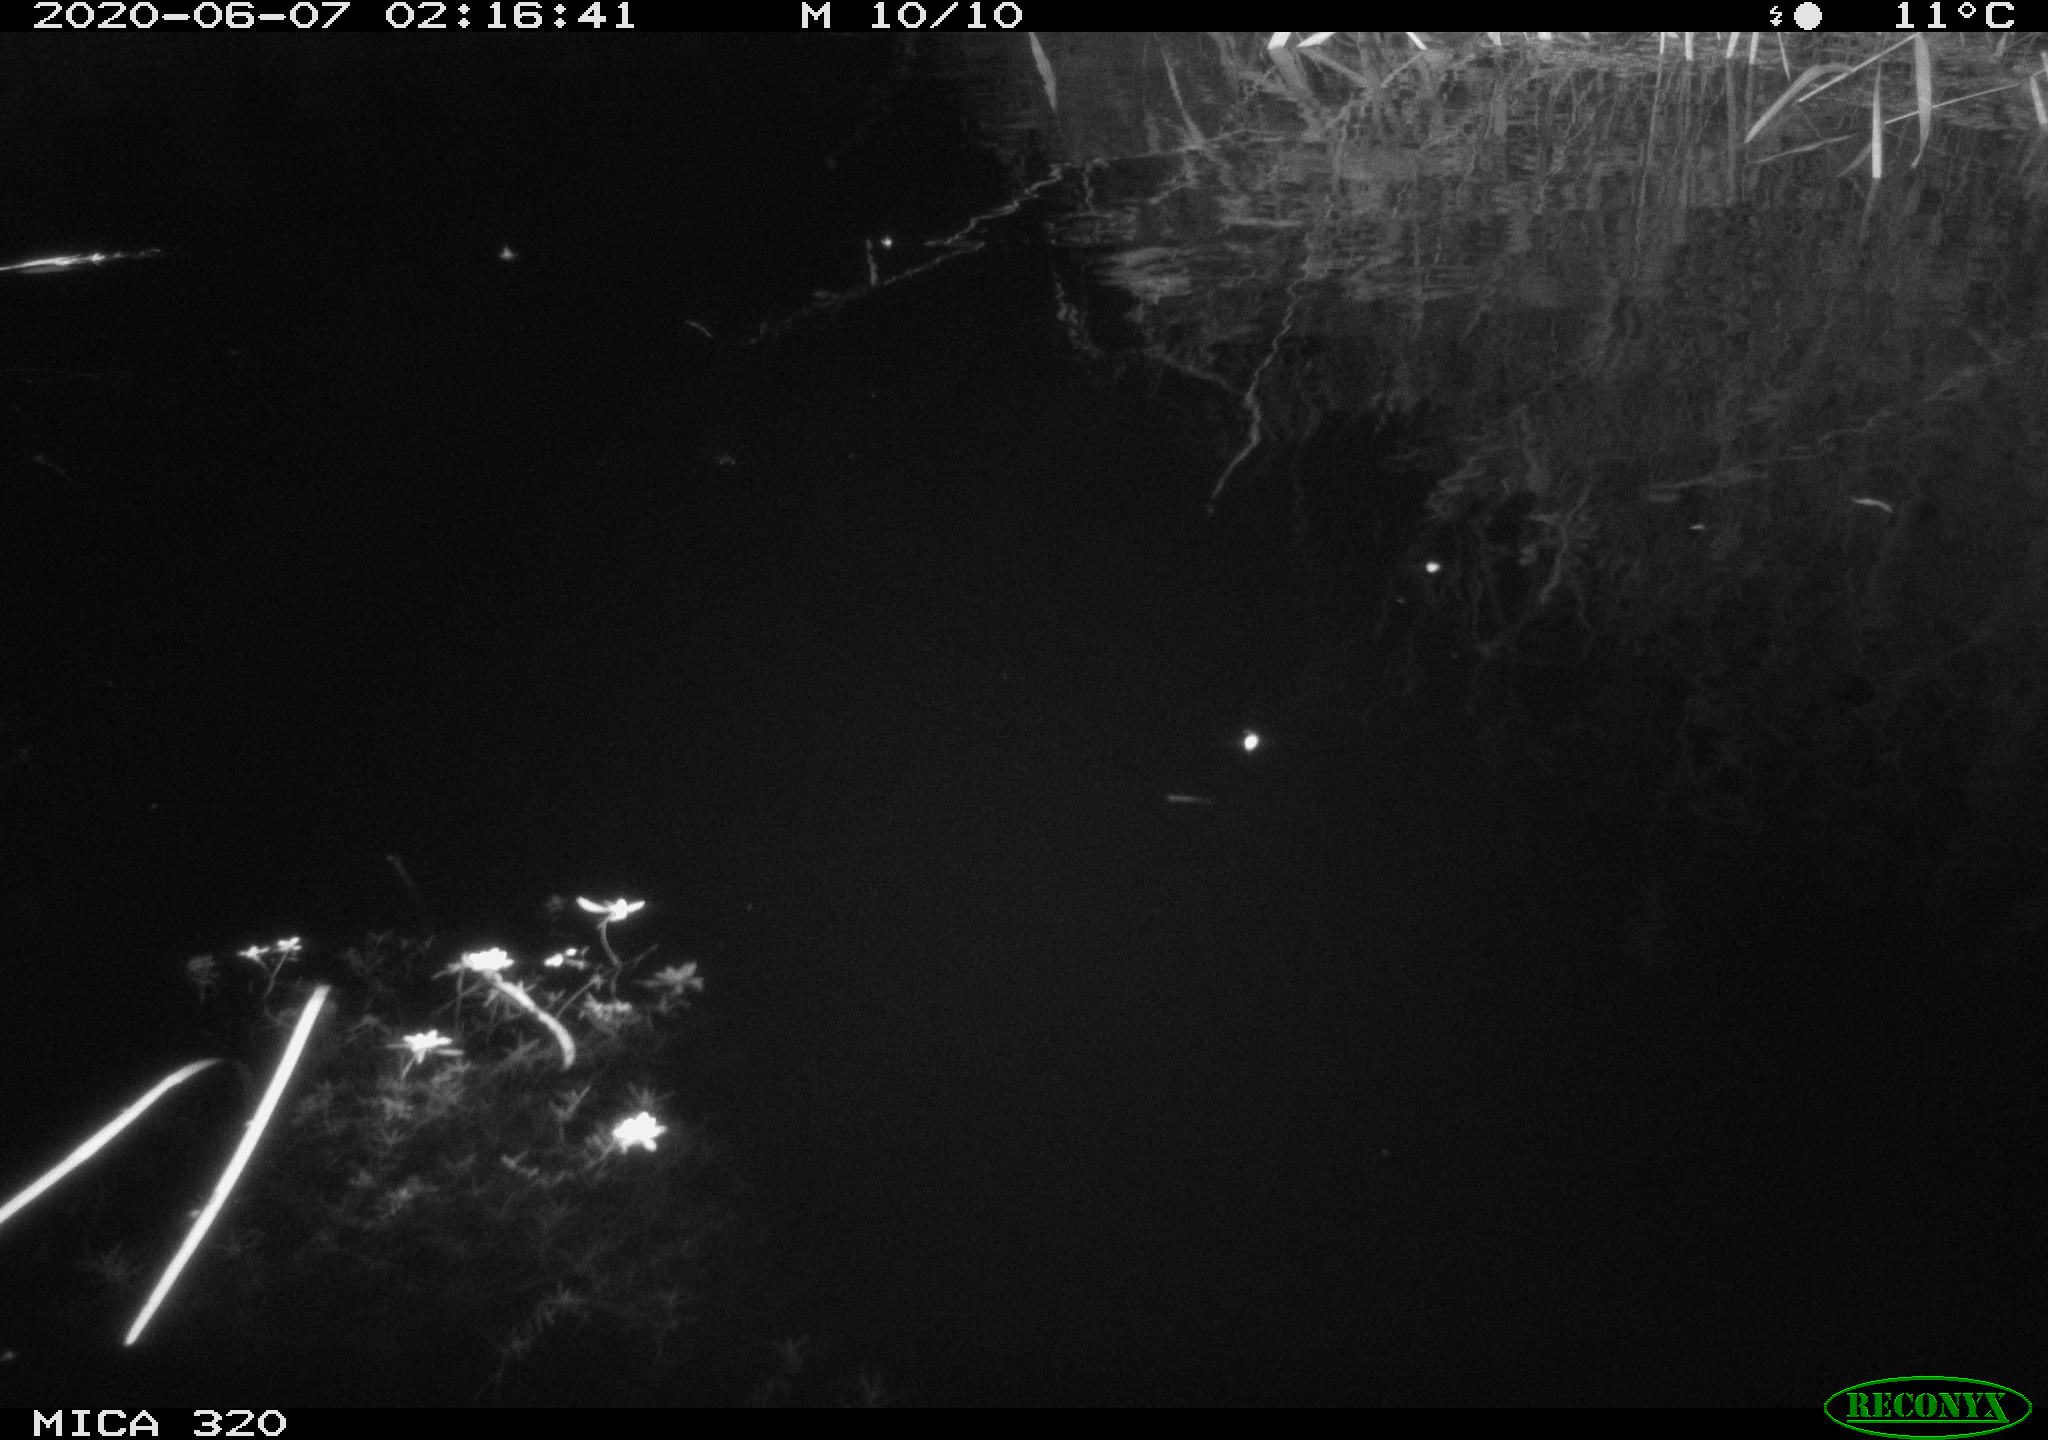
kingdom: Animalia
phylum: Chordata
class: Aves
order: Anseriformes
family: Anatidae
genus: Anas
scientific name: Anas platyrhynchos
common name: Mallard
